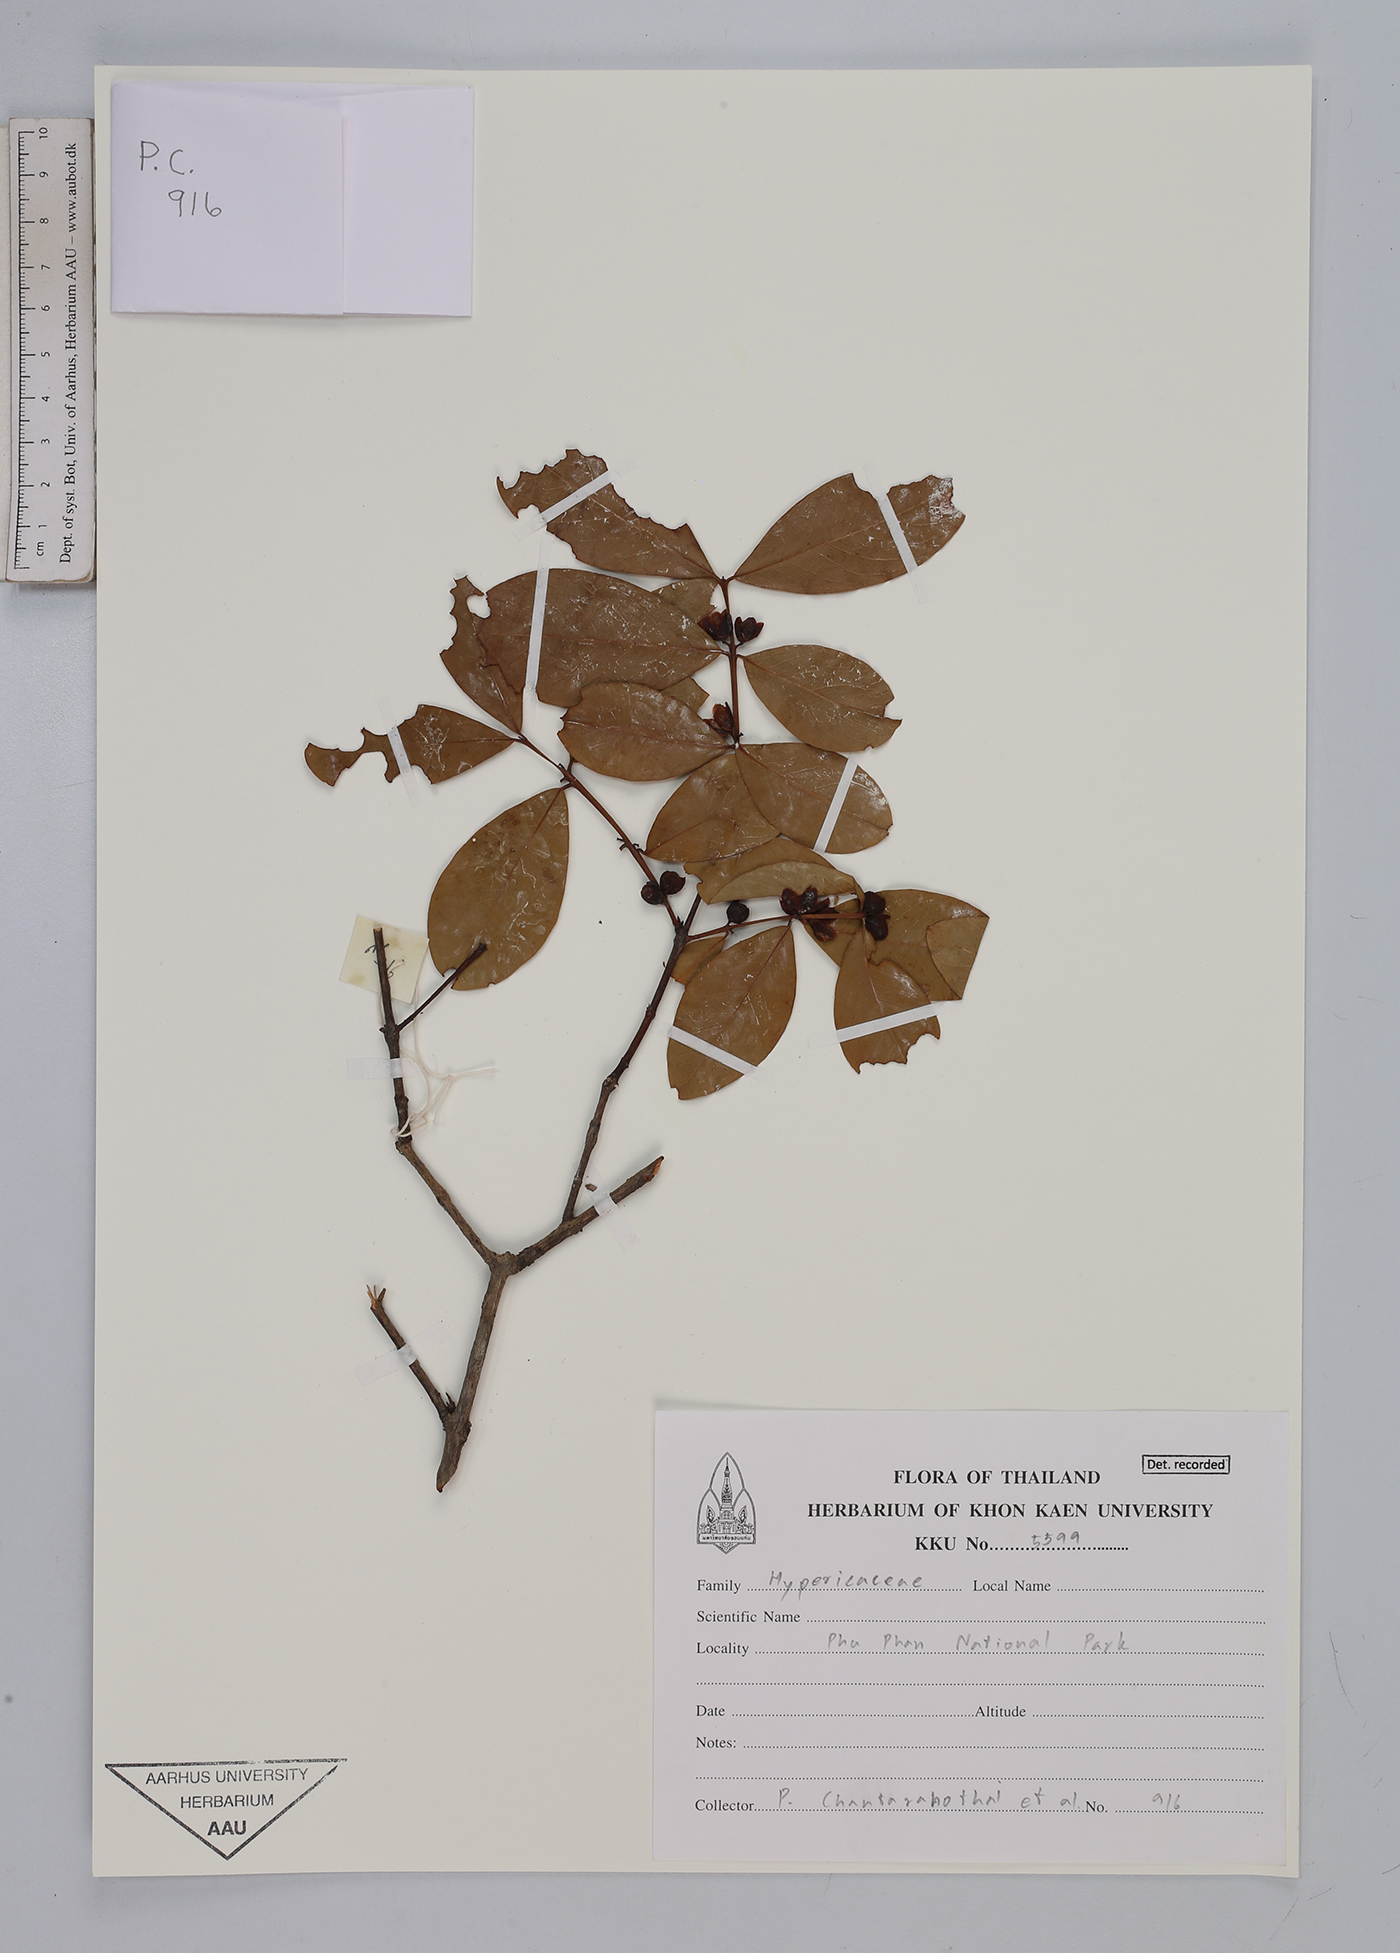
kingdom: Plantae
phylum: Tracheophyta
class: Magnoliopsida
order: Malpighiales
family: Hypericaceae
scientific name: Hypericaceae
